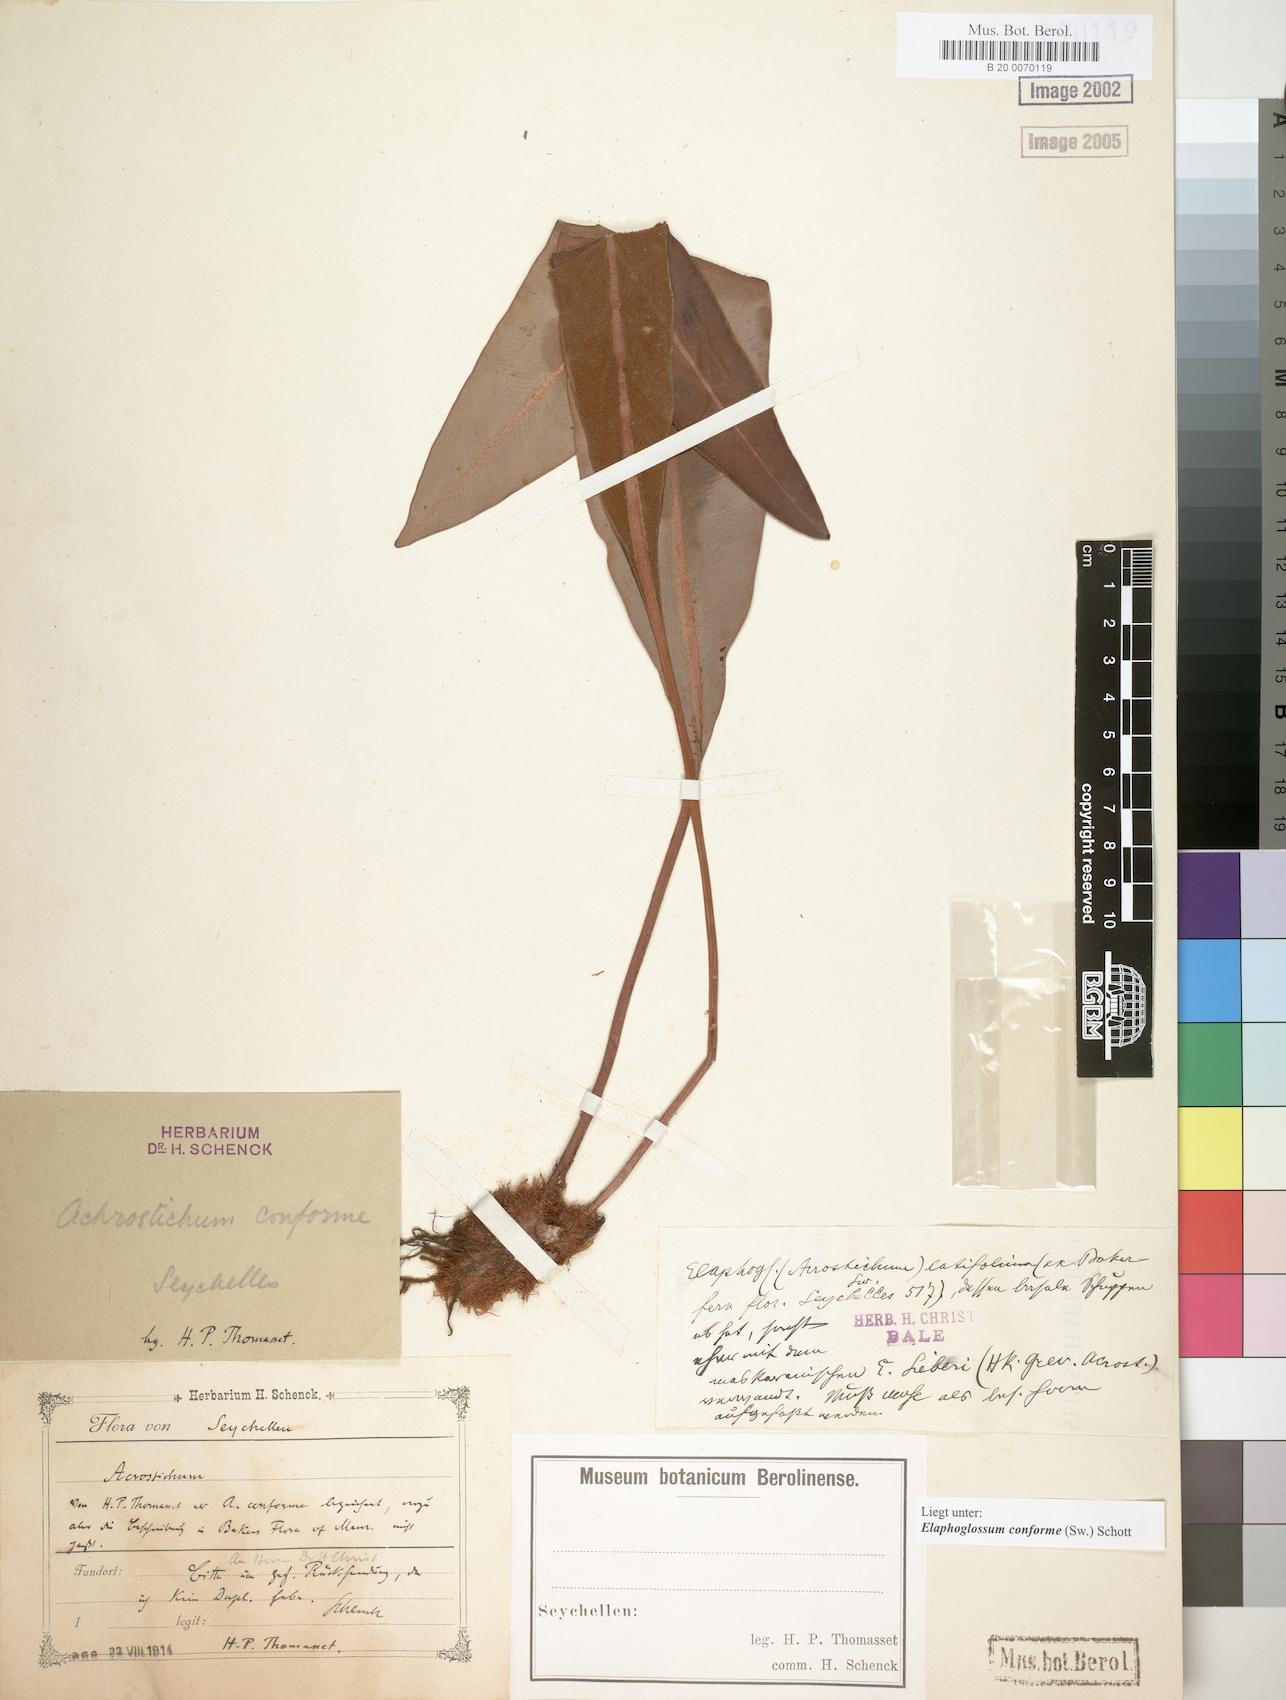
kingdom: Plantae
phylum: Tracheophyta
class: Polypodiopsida
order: Polypodiales
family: Dryopteridaceae
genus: Elaphoglossum
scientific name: Elaphoglossum conforme
